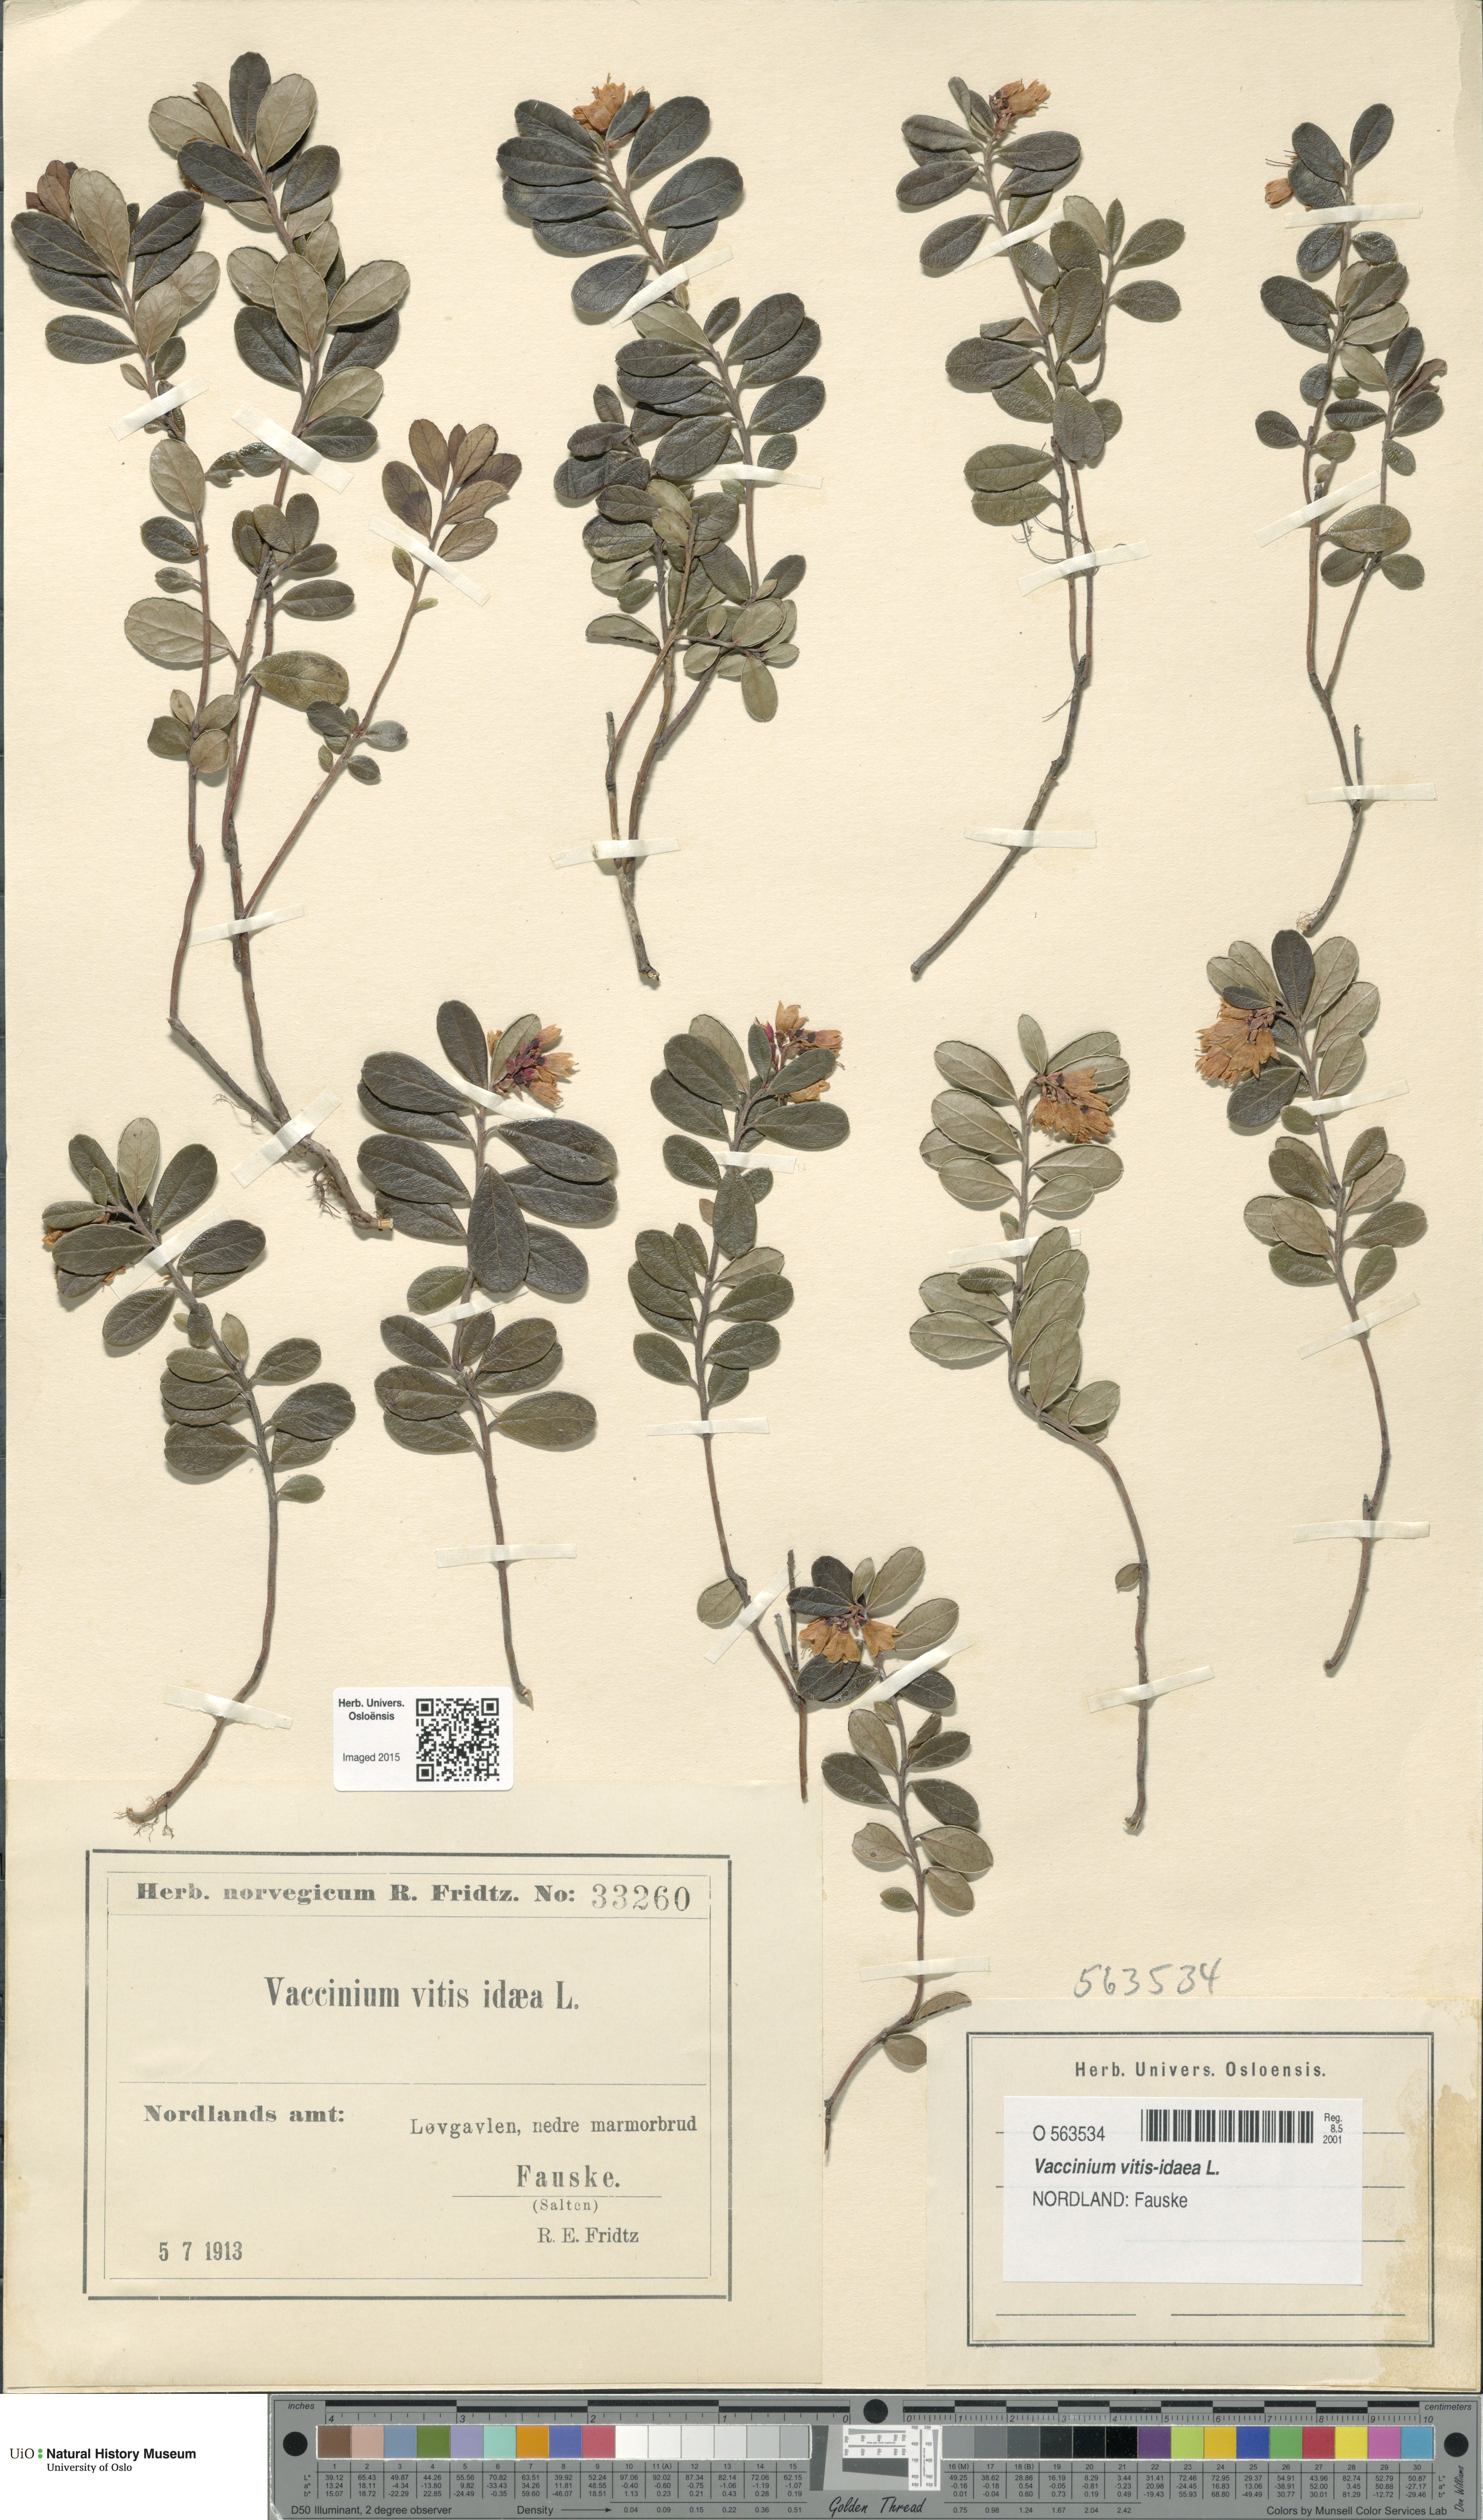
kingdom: Plantae
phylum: Tracheophyta
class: Magnoliopsida
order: Ericales
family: Ericaceae
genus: Vaccinium
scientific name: Vaccinium vitis-idaea
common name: Cowberry
